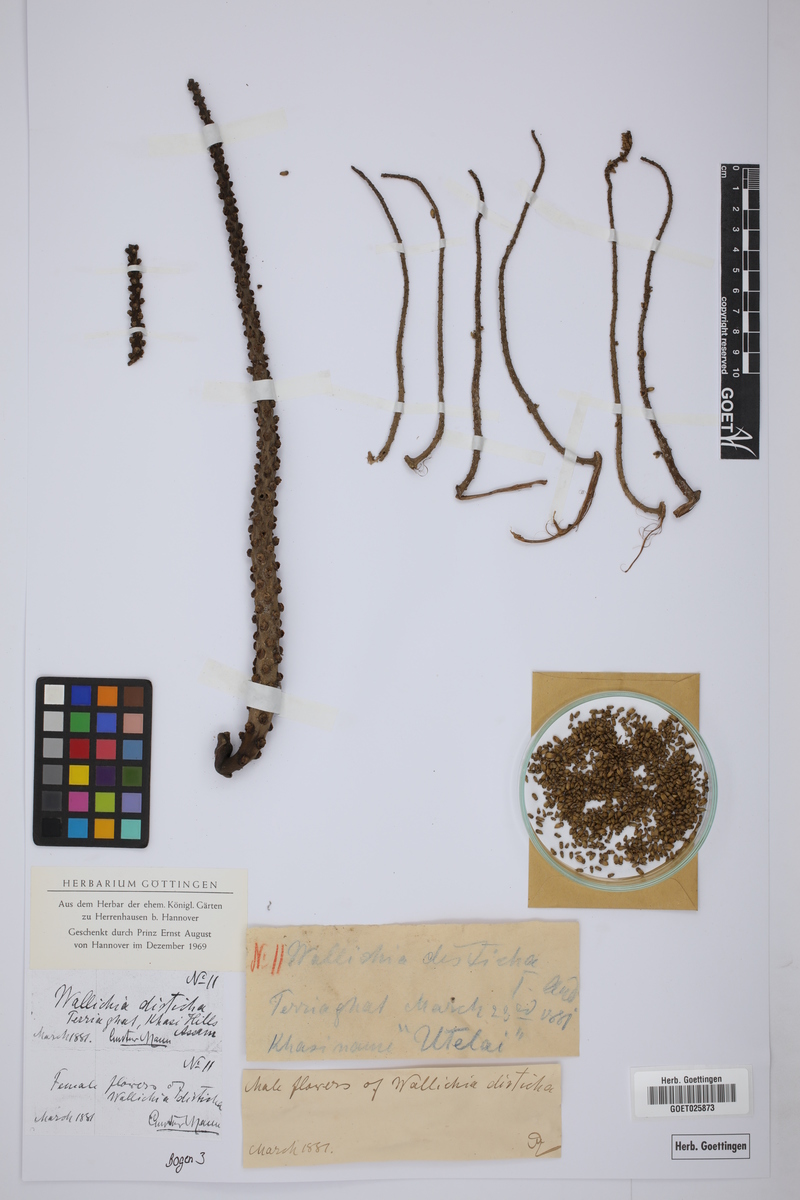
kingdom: Plantae
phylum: Tracheophyta
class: Liliopsida
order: Arecales
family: Arecaceae
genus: Wallichia
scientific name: Wallichia disticha
